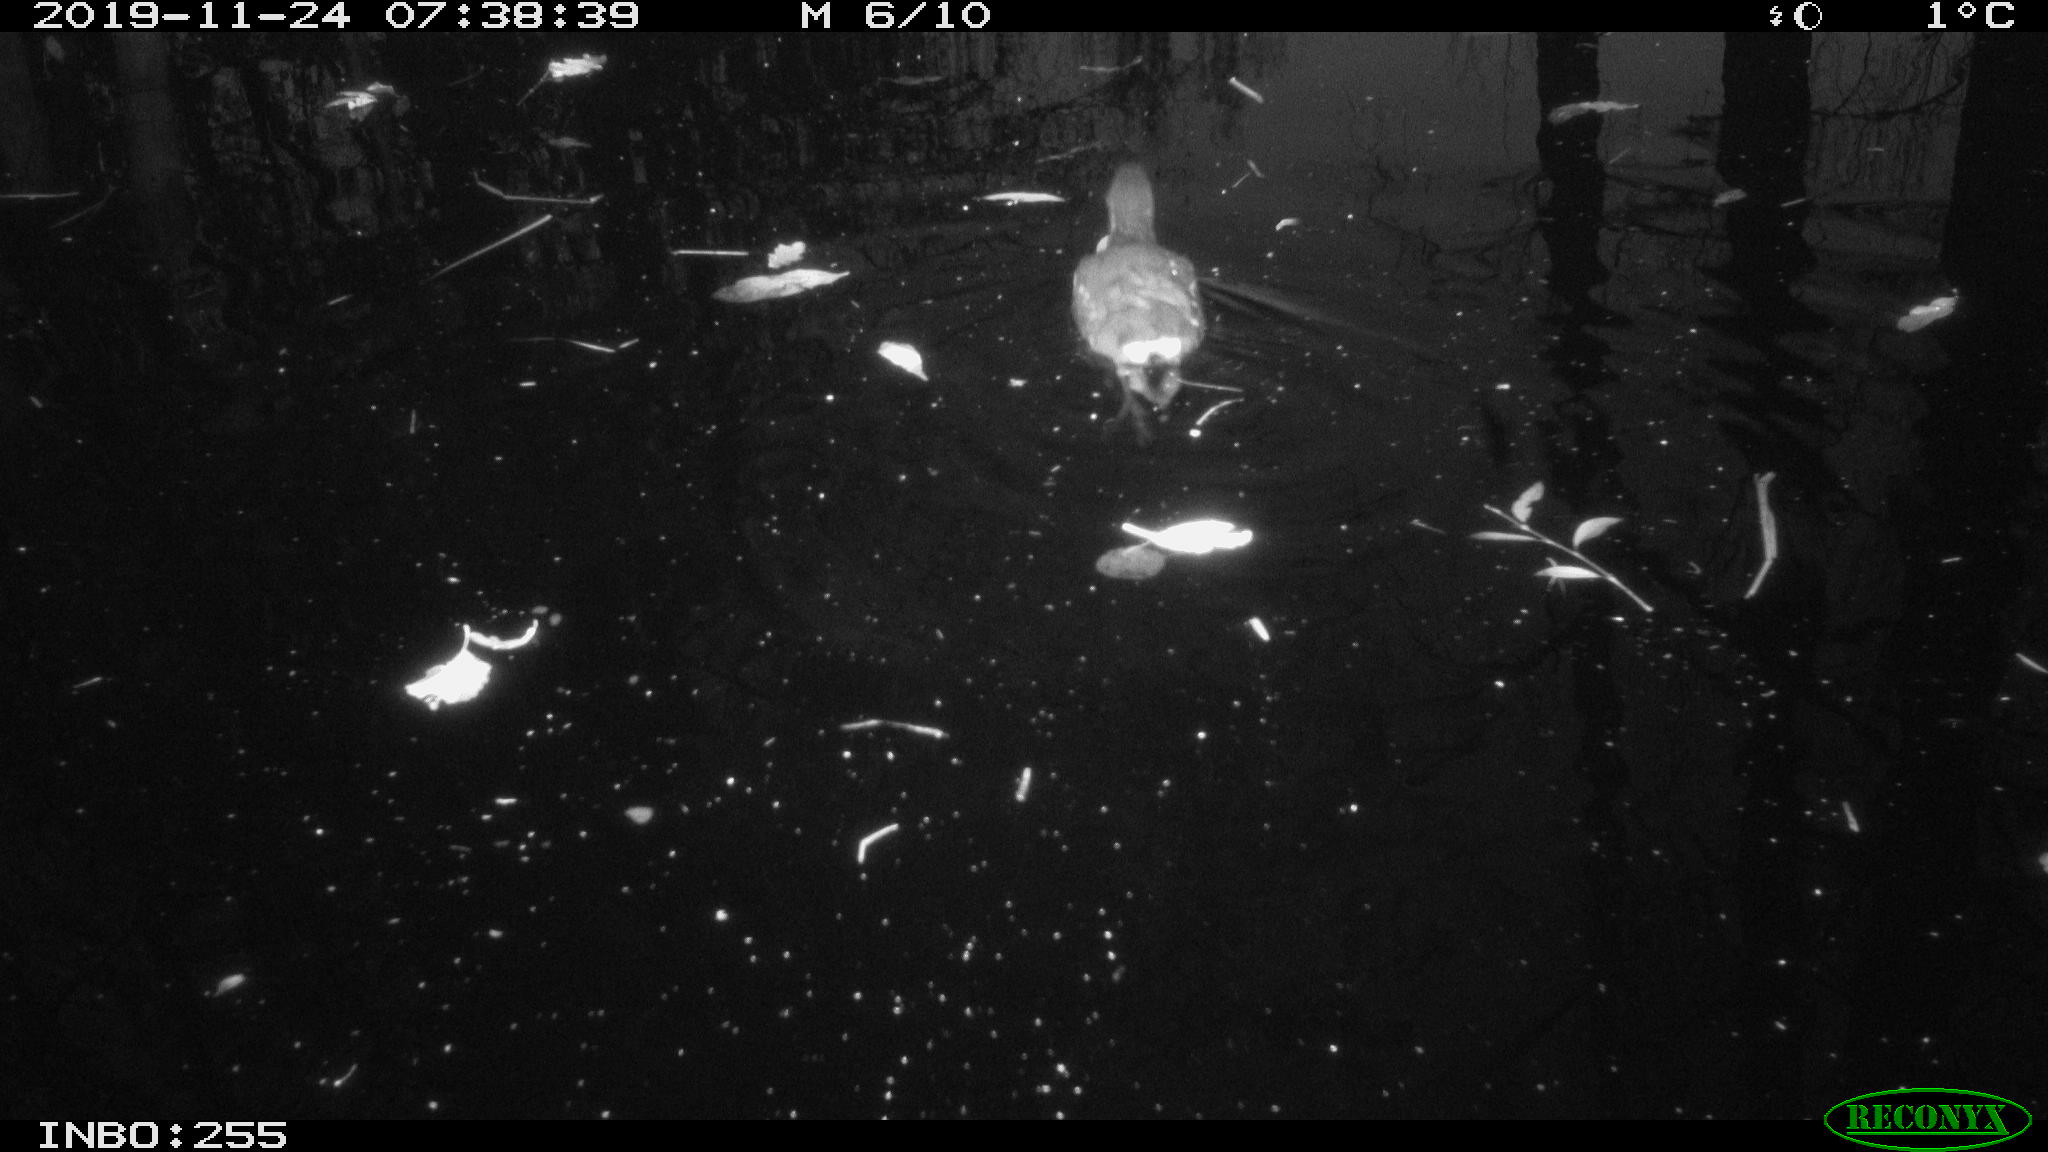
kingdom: Animalia
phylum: Chordata
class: Aves
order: Gruiformes
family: Rallidae
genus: Gallinula
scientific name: Gallinula chloropus
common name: Common moorhen
